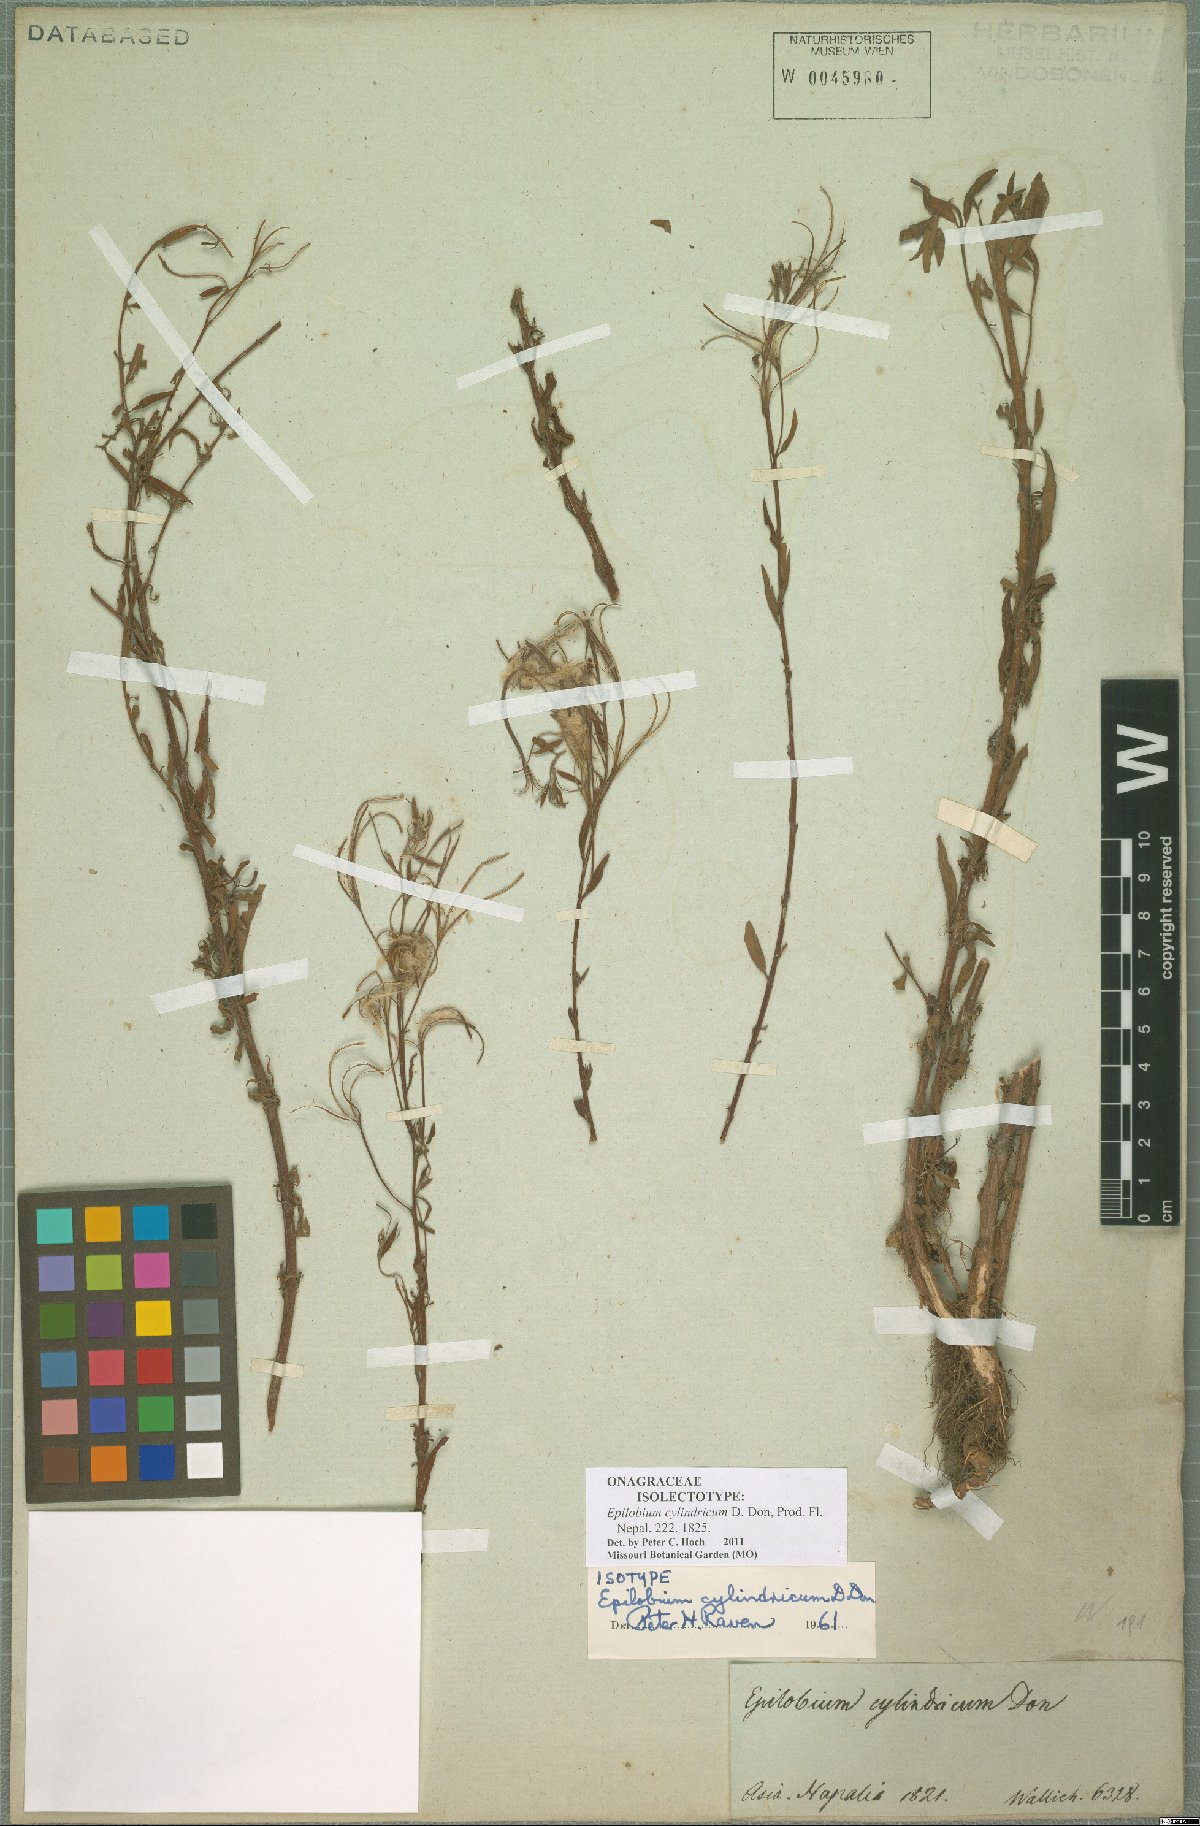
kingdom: Plantae
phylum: Tracheophyta
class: Magnoliopsida
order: Myrtales
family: Onagraceae
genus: Epilobium
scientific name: Epilobium cylindricum
